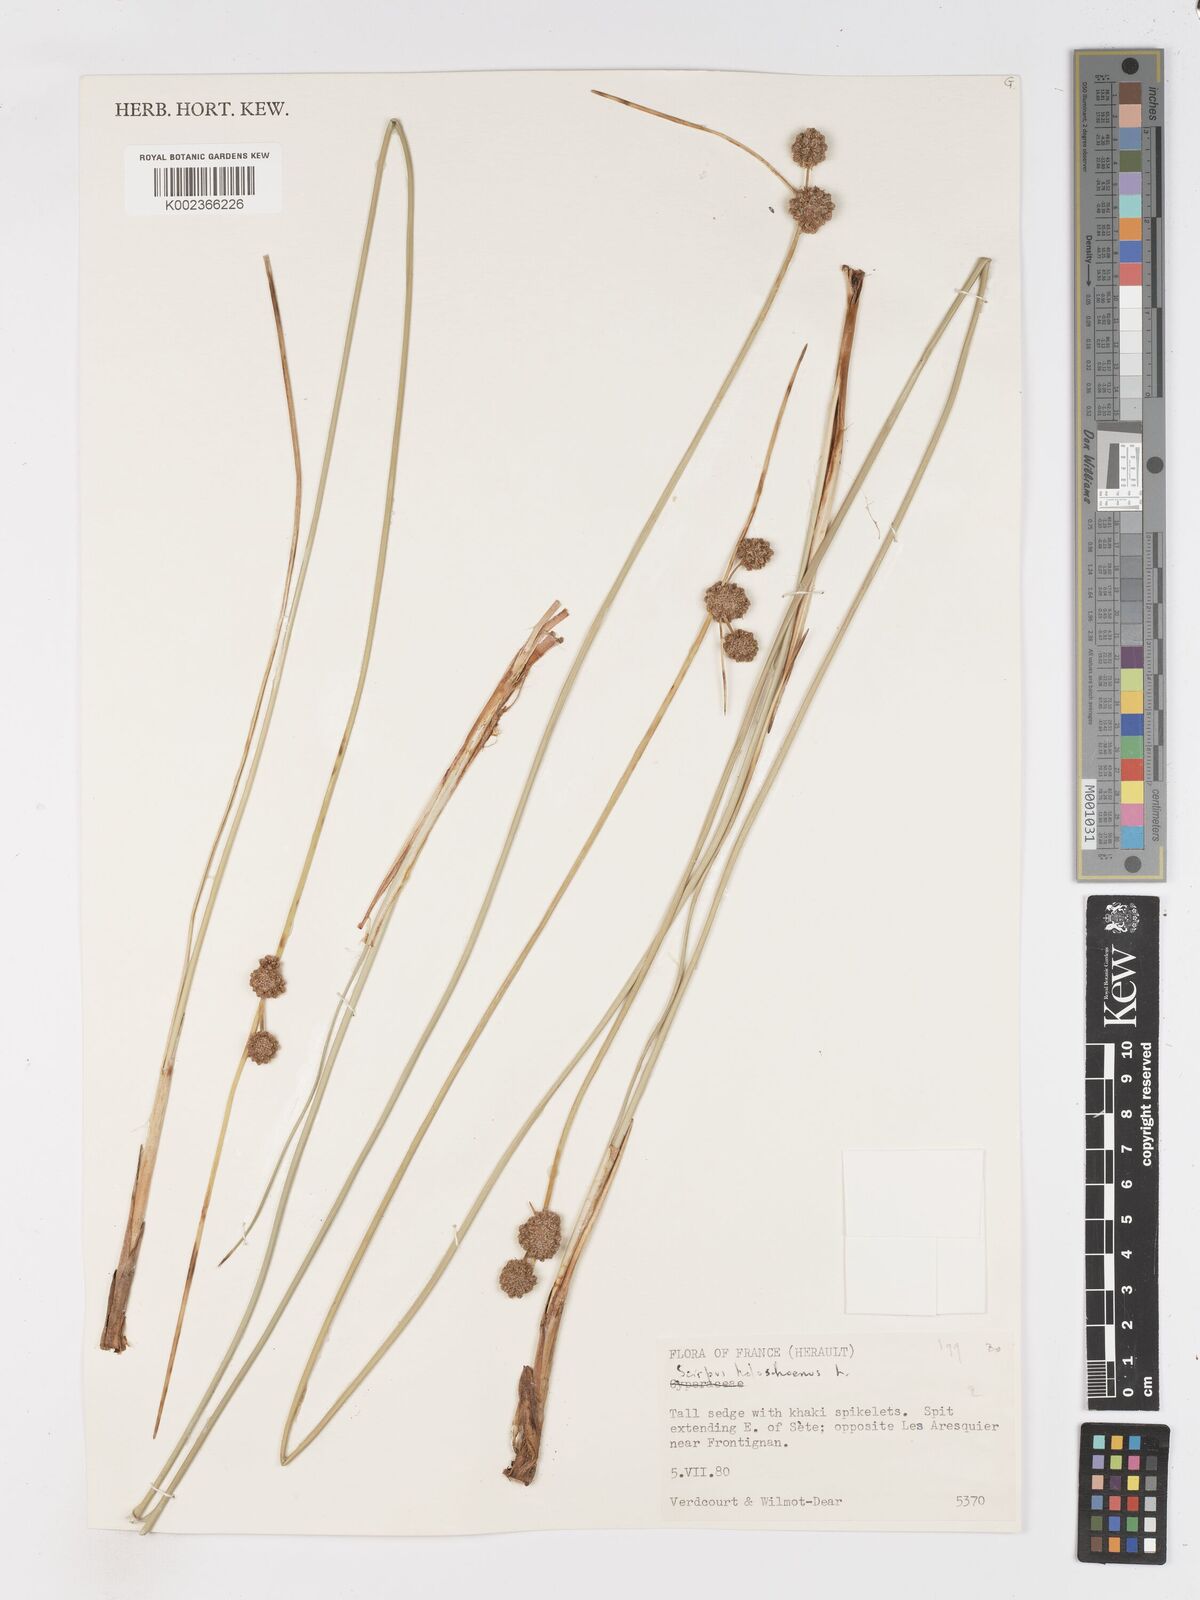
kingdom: Plantae
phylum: Tracheophyta
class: Liliopsida
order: Poales
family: Cyperaceae
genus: Scirpoides
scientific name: Scirpoides holoschoenus
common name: Round-headed club-rush
